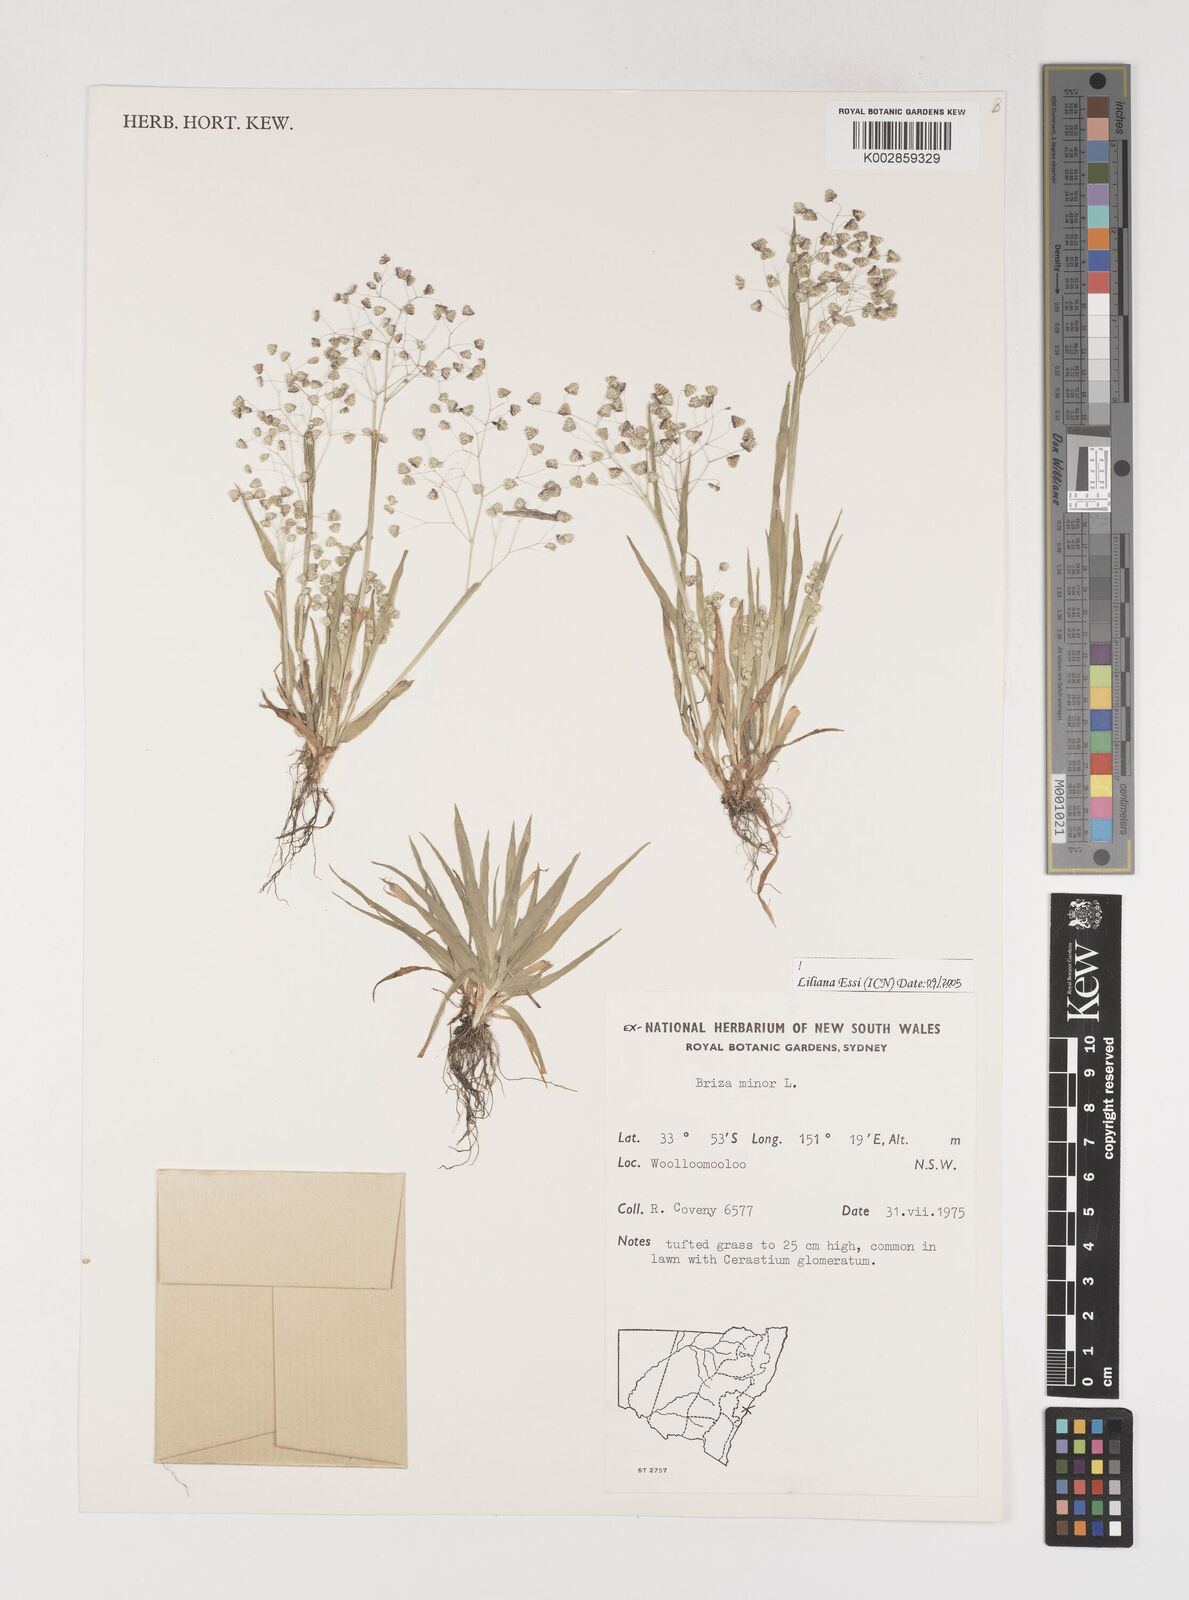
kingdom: Plantae
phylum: Tracheophyta
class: Liliopsida
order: Poales
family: Poaceae
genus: Briza
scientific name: Briza minor
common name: Lesser quaking-grass
